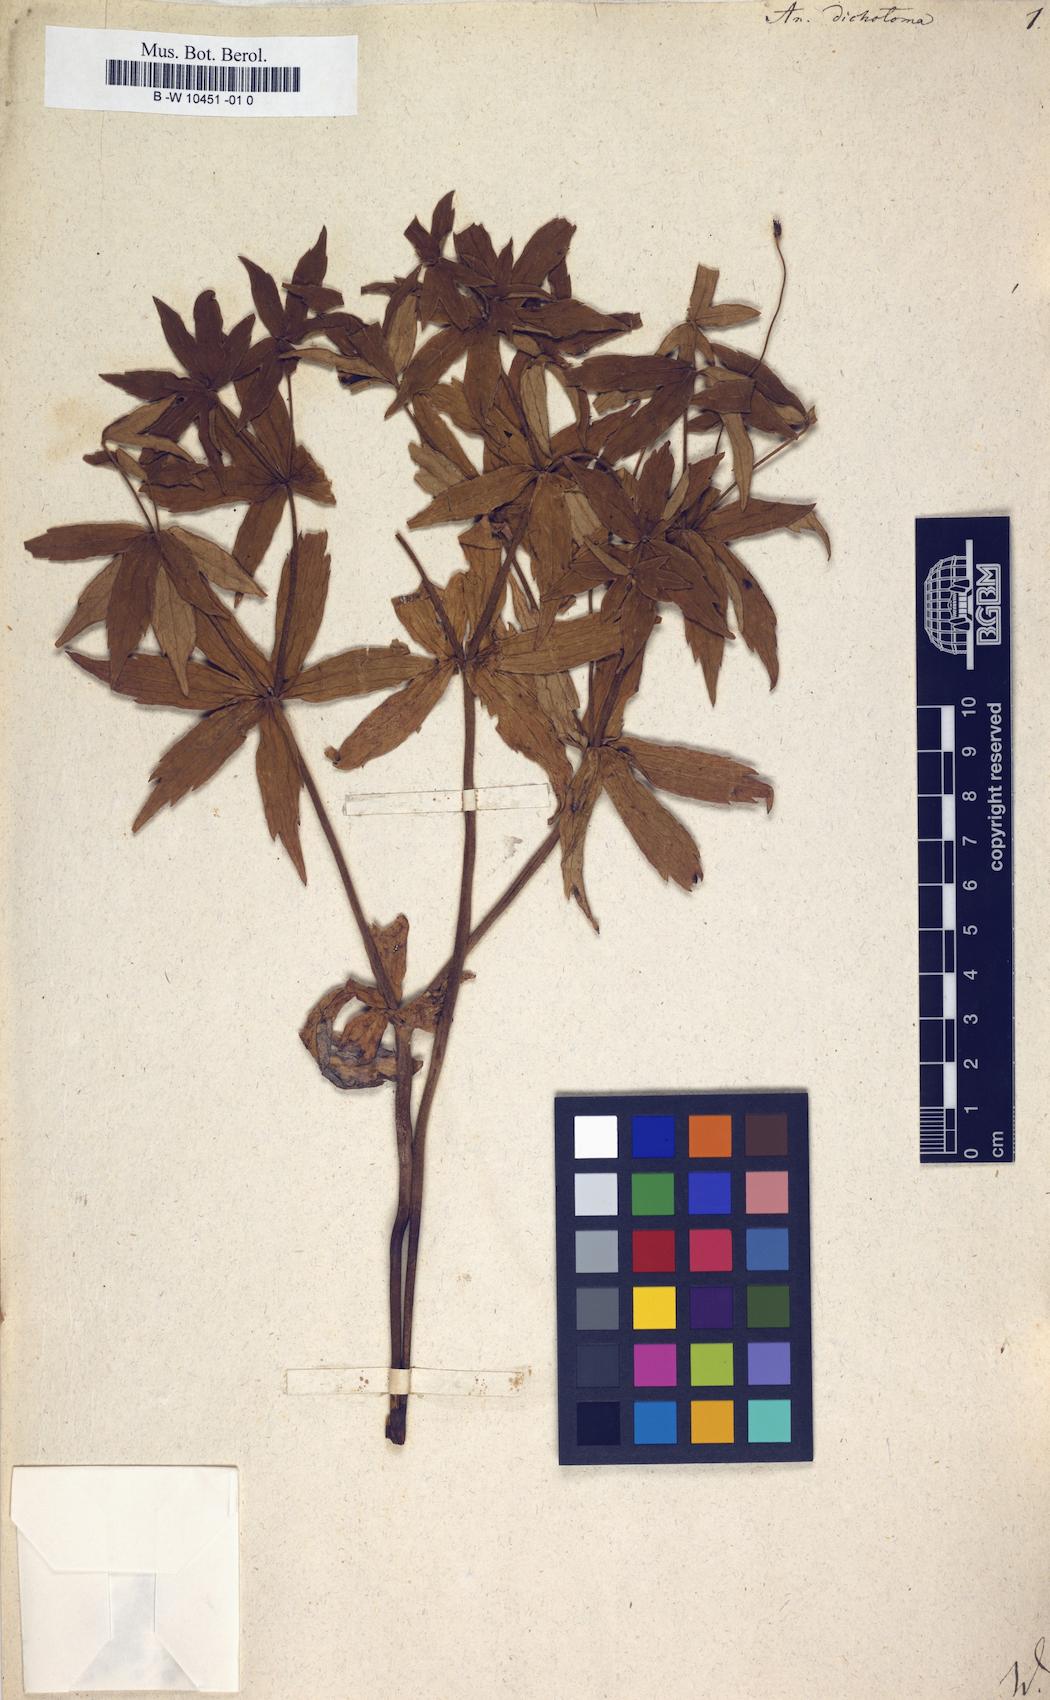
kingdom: Plantae
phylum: Tracheophyta
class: Magnoliopsida
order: Ranunculales
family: Ranunculaceae
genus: Anemonastrum
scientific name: Anemonastrum dichotomum
